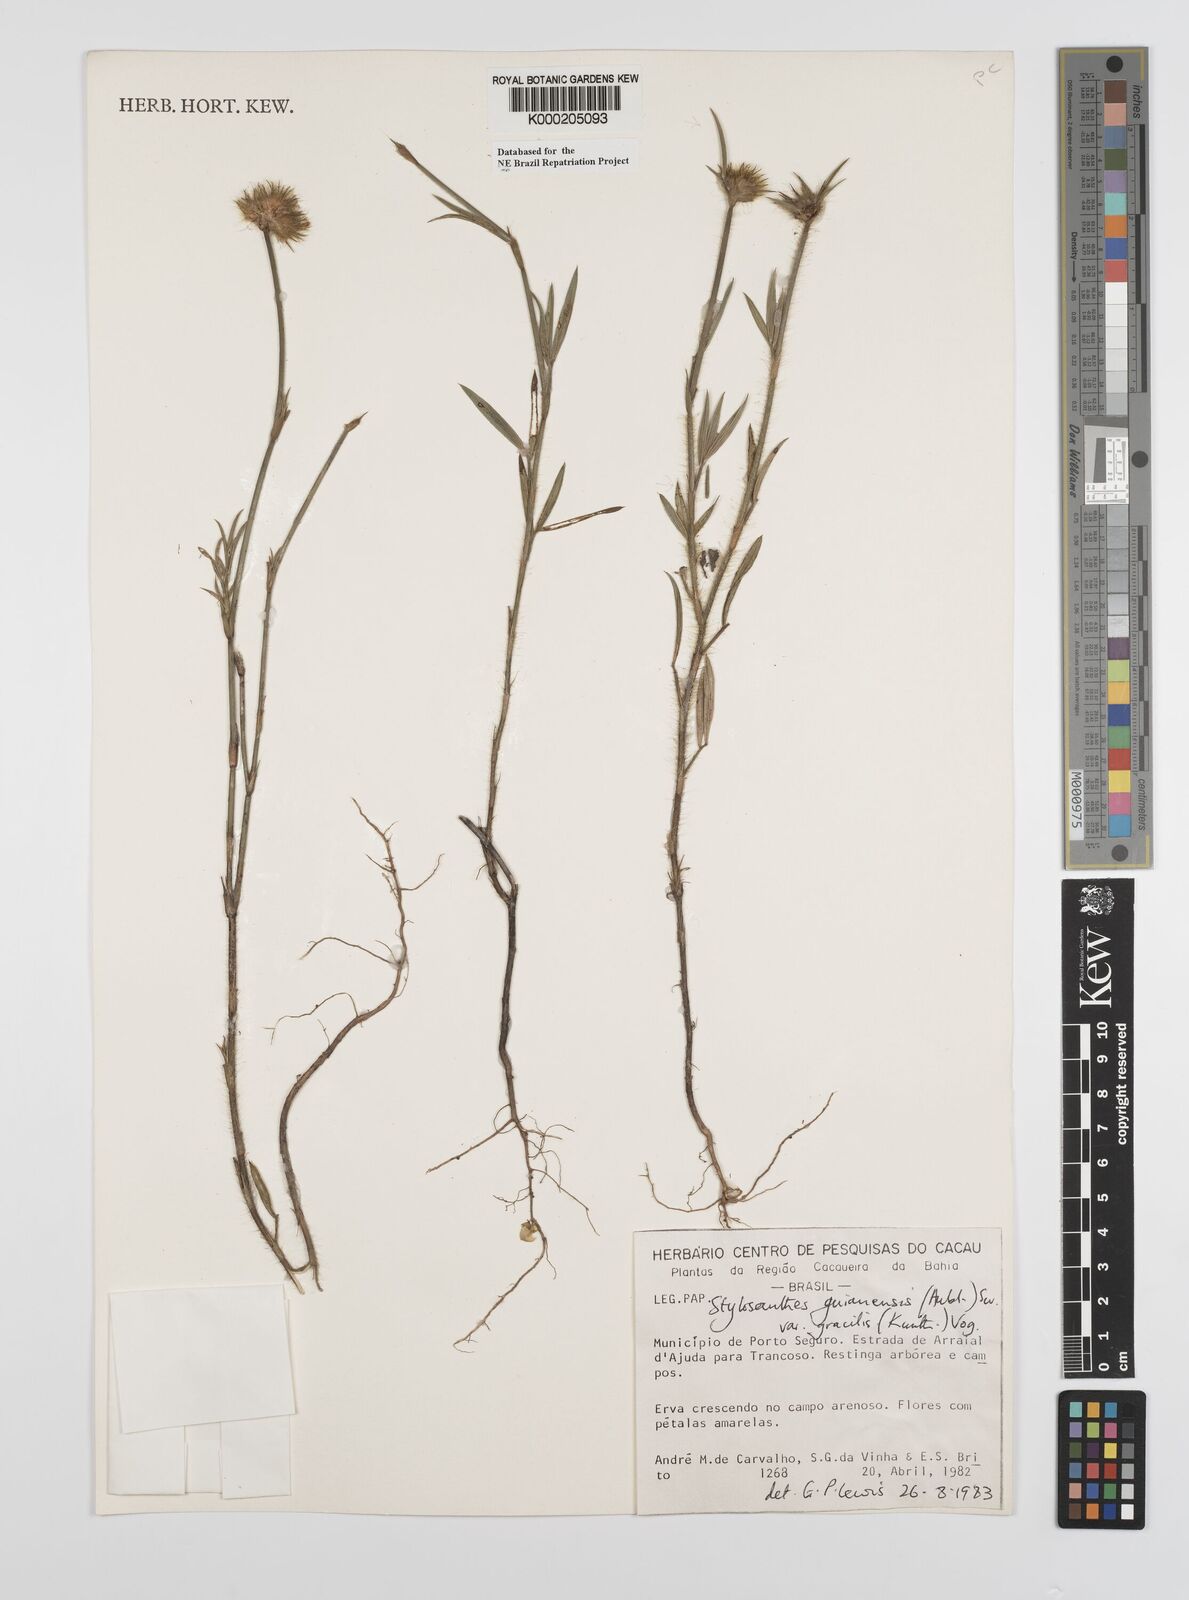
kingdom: Plantae
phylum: Tracheophyta
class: Magnoliopsida
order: Fabales
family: Fabaceae
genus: Stylosanthes
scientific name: Stylosanthes guianensis
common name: Pencil flower
